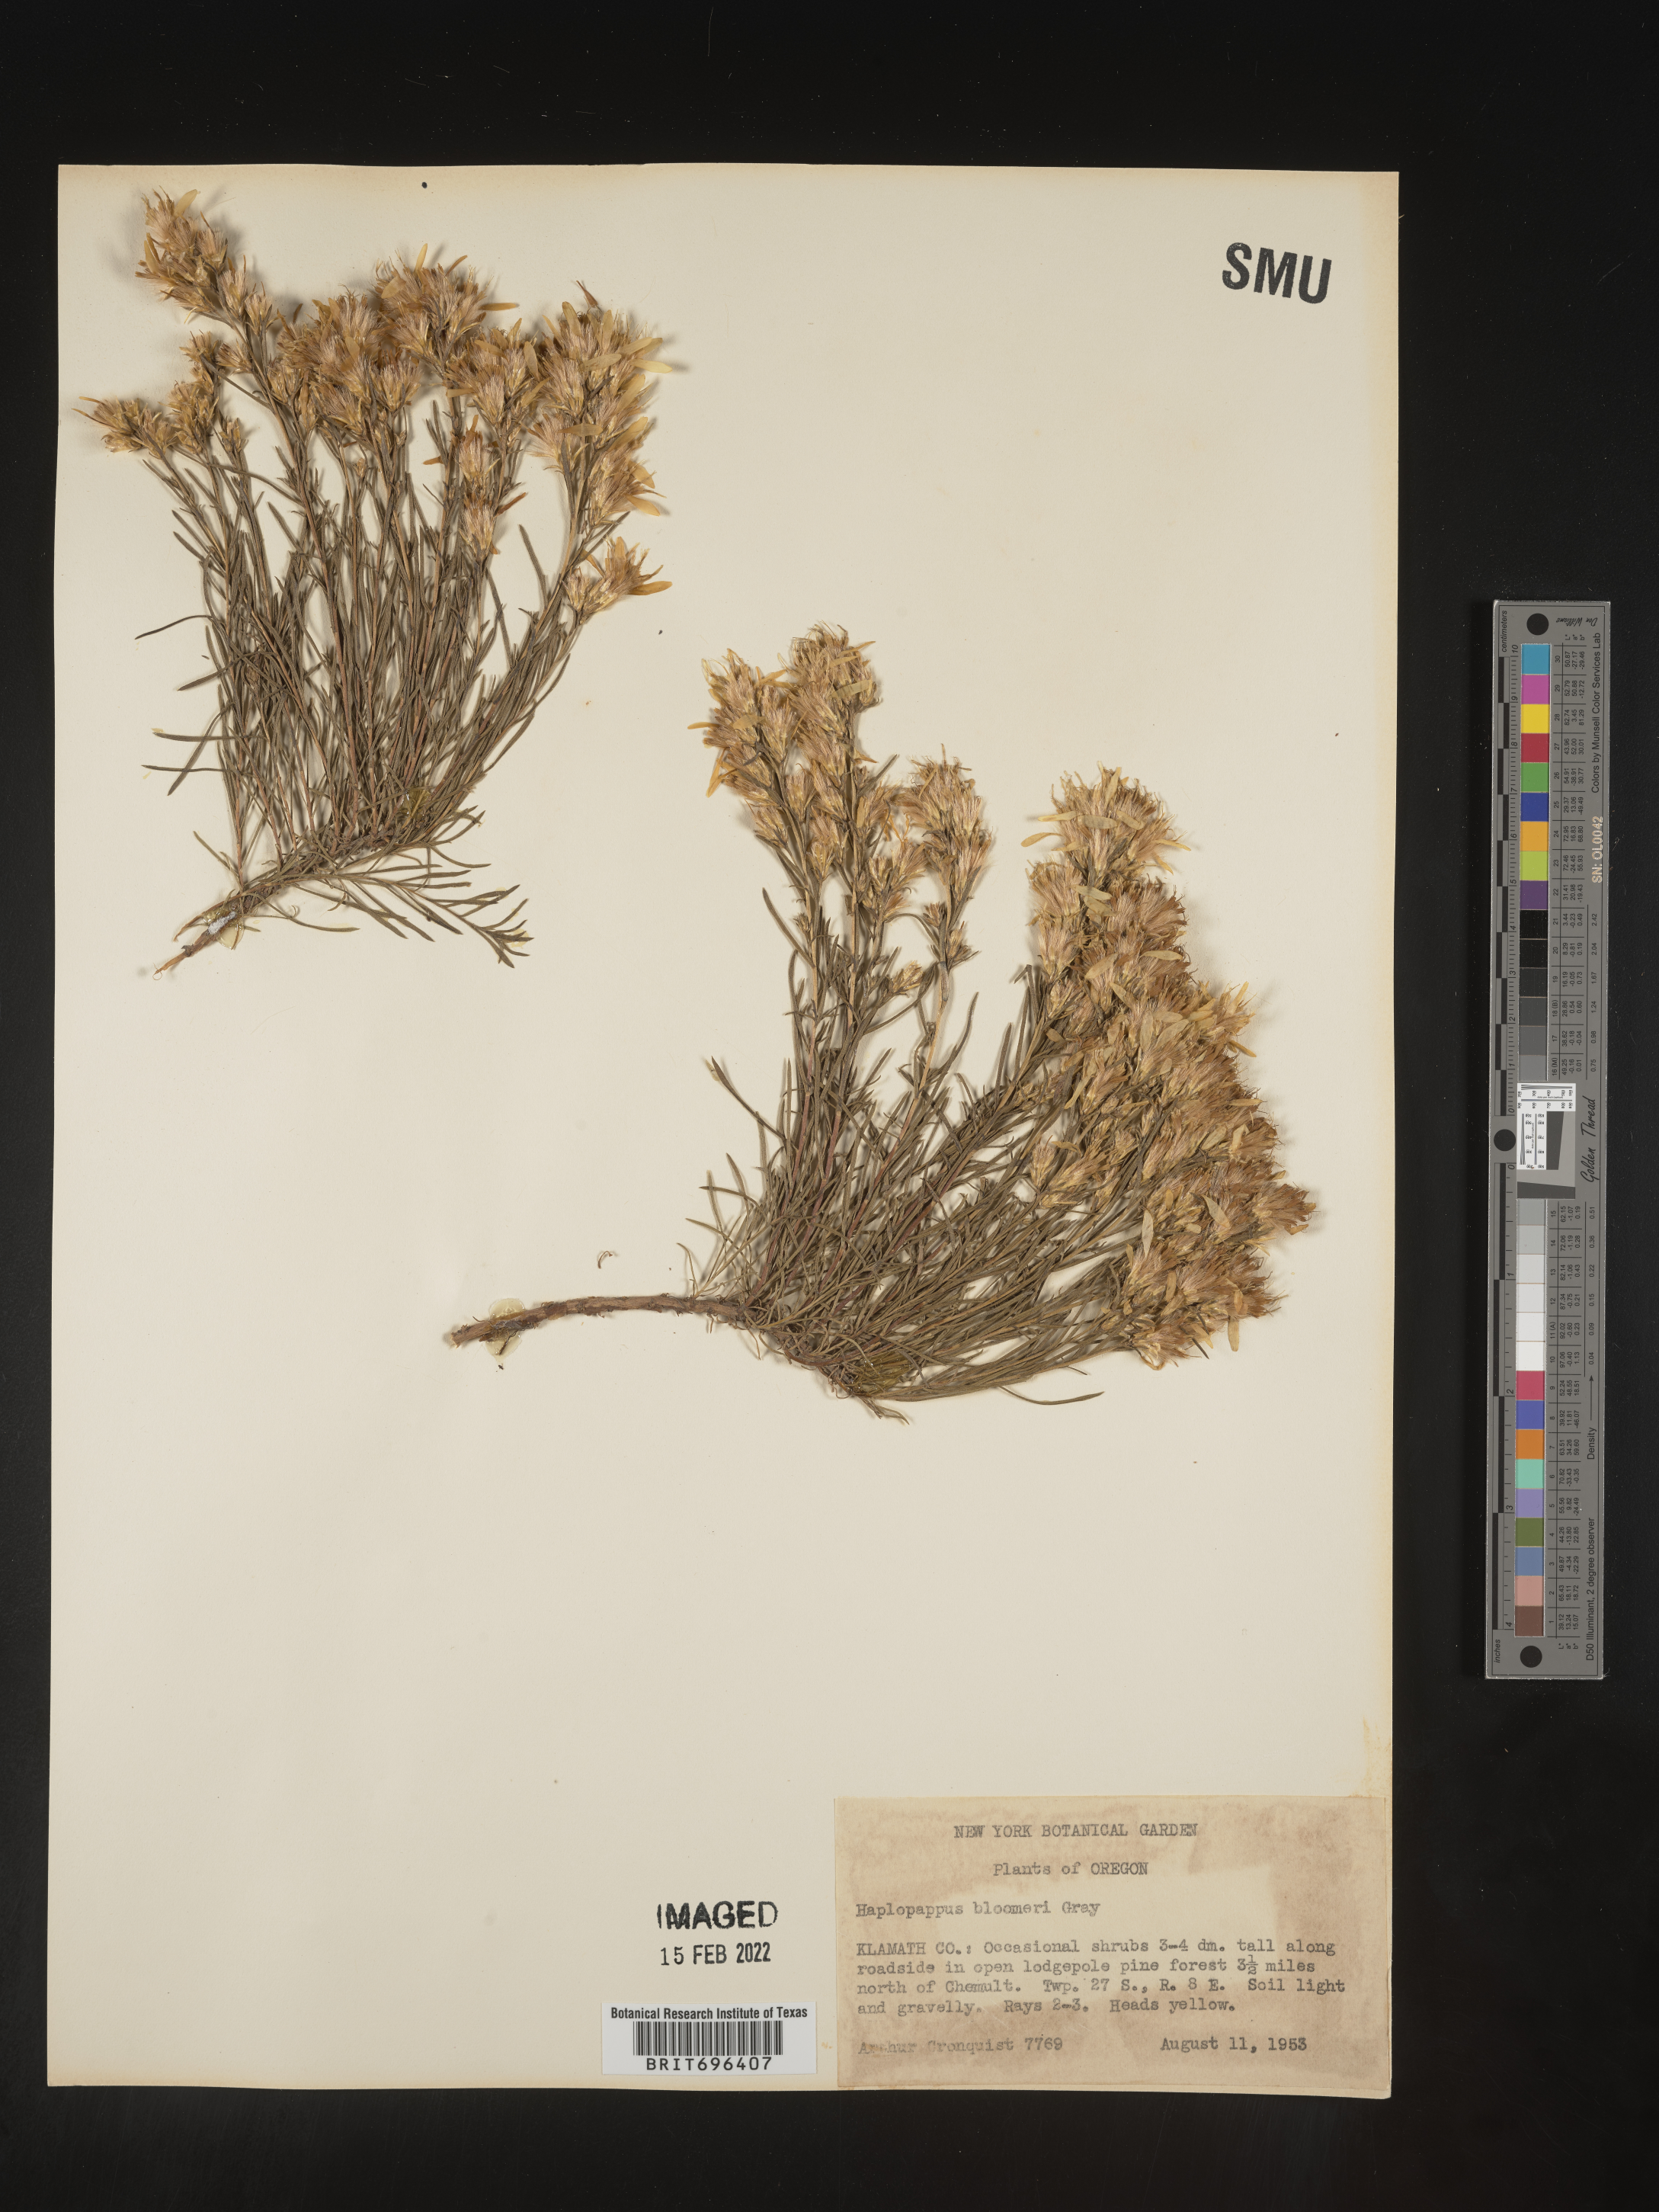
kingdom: Plantae
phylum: Tracheophyta
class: Magnoliopsida
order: Asterales
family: Asteraceae
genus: Ericameria
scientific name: Ericameria bloomeri
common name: Bloomer's goldenbush
